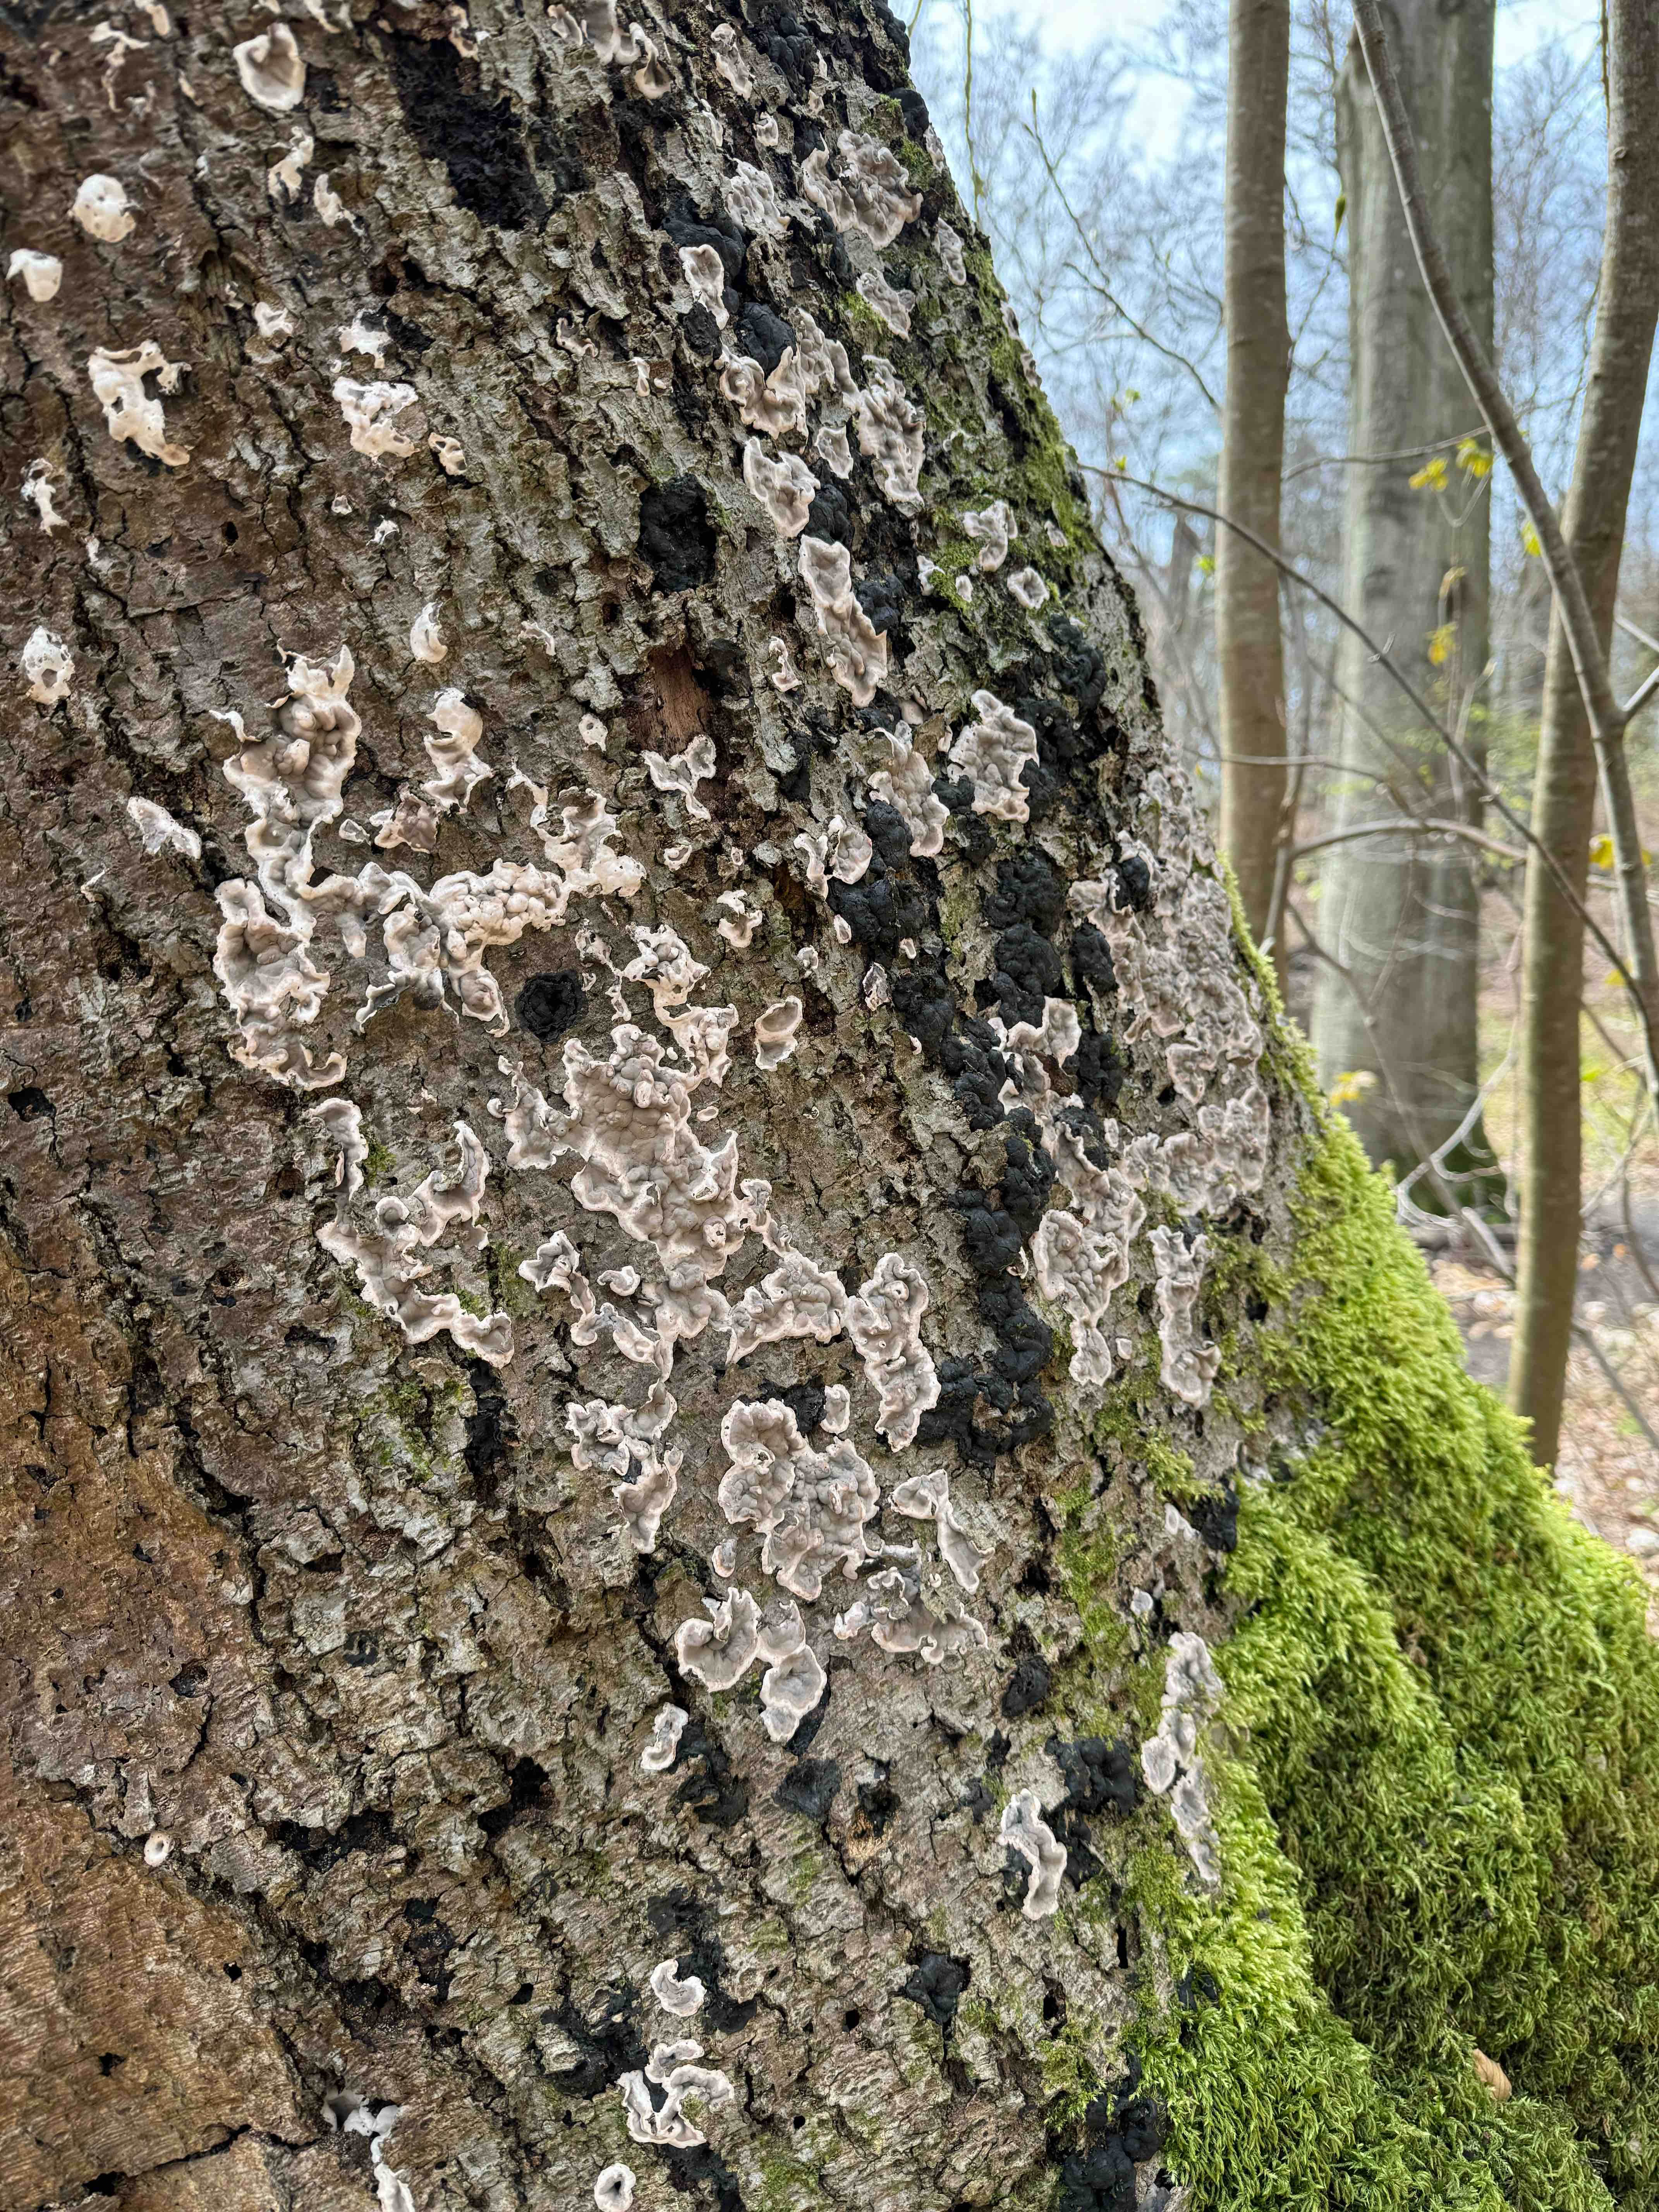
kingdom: Fungi
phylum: Ascomycota
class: Sordariomycetes
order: Xylariales
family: Xylariaceae
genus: Kretzschmaria
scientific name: Kretzschmaria deusta
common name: stor kulsvamp
